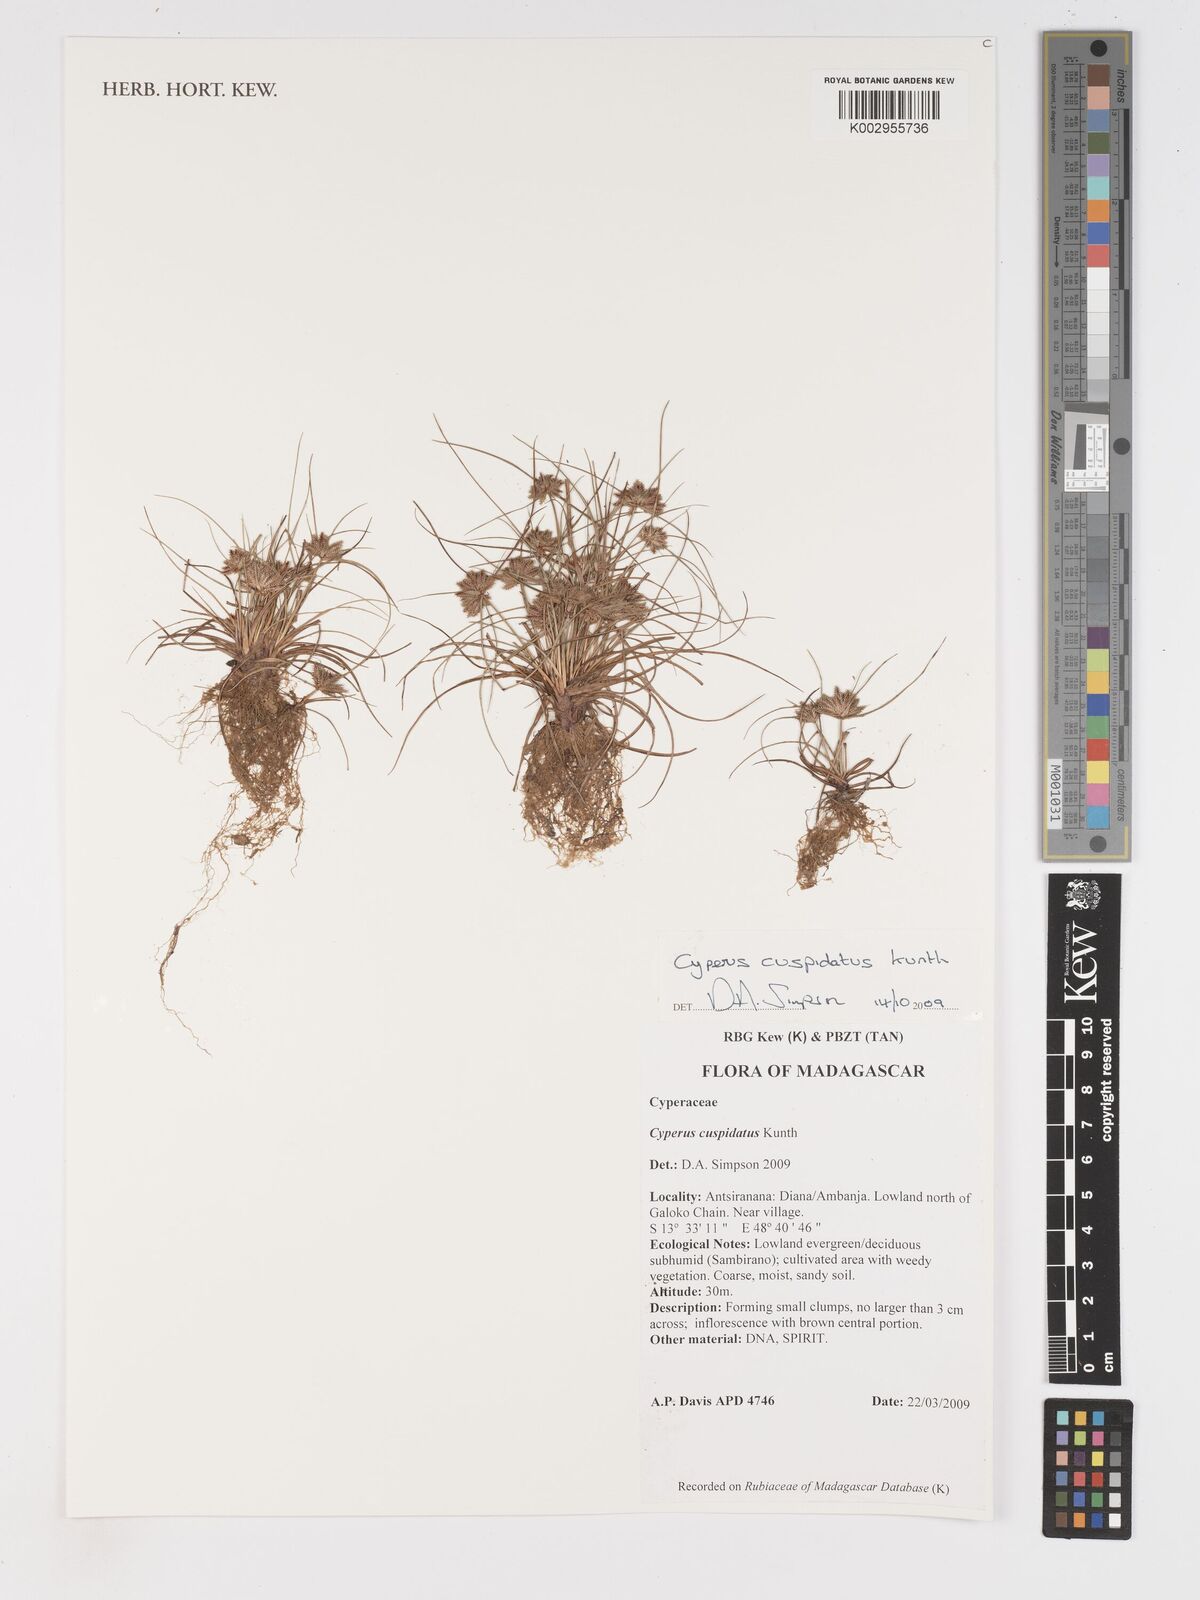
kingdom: Plantae
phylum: Tracheophyta
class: Liliopsida
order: Poales
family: Cyperaceae
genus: Cyperus
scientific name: Cyperus cuspidatus
